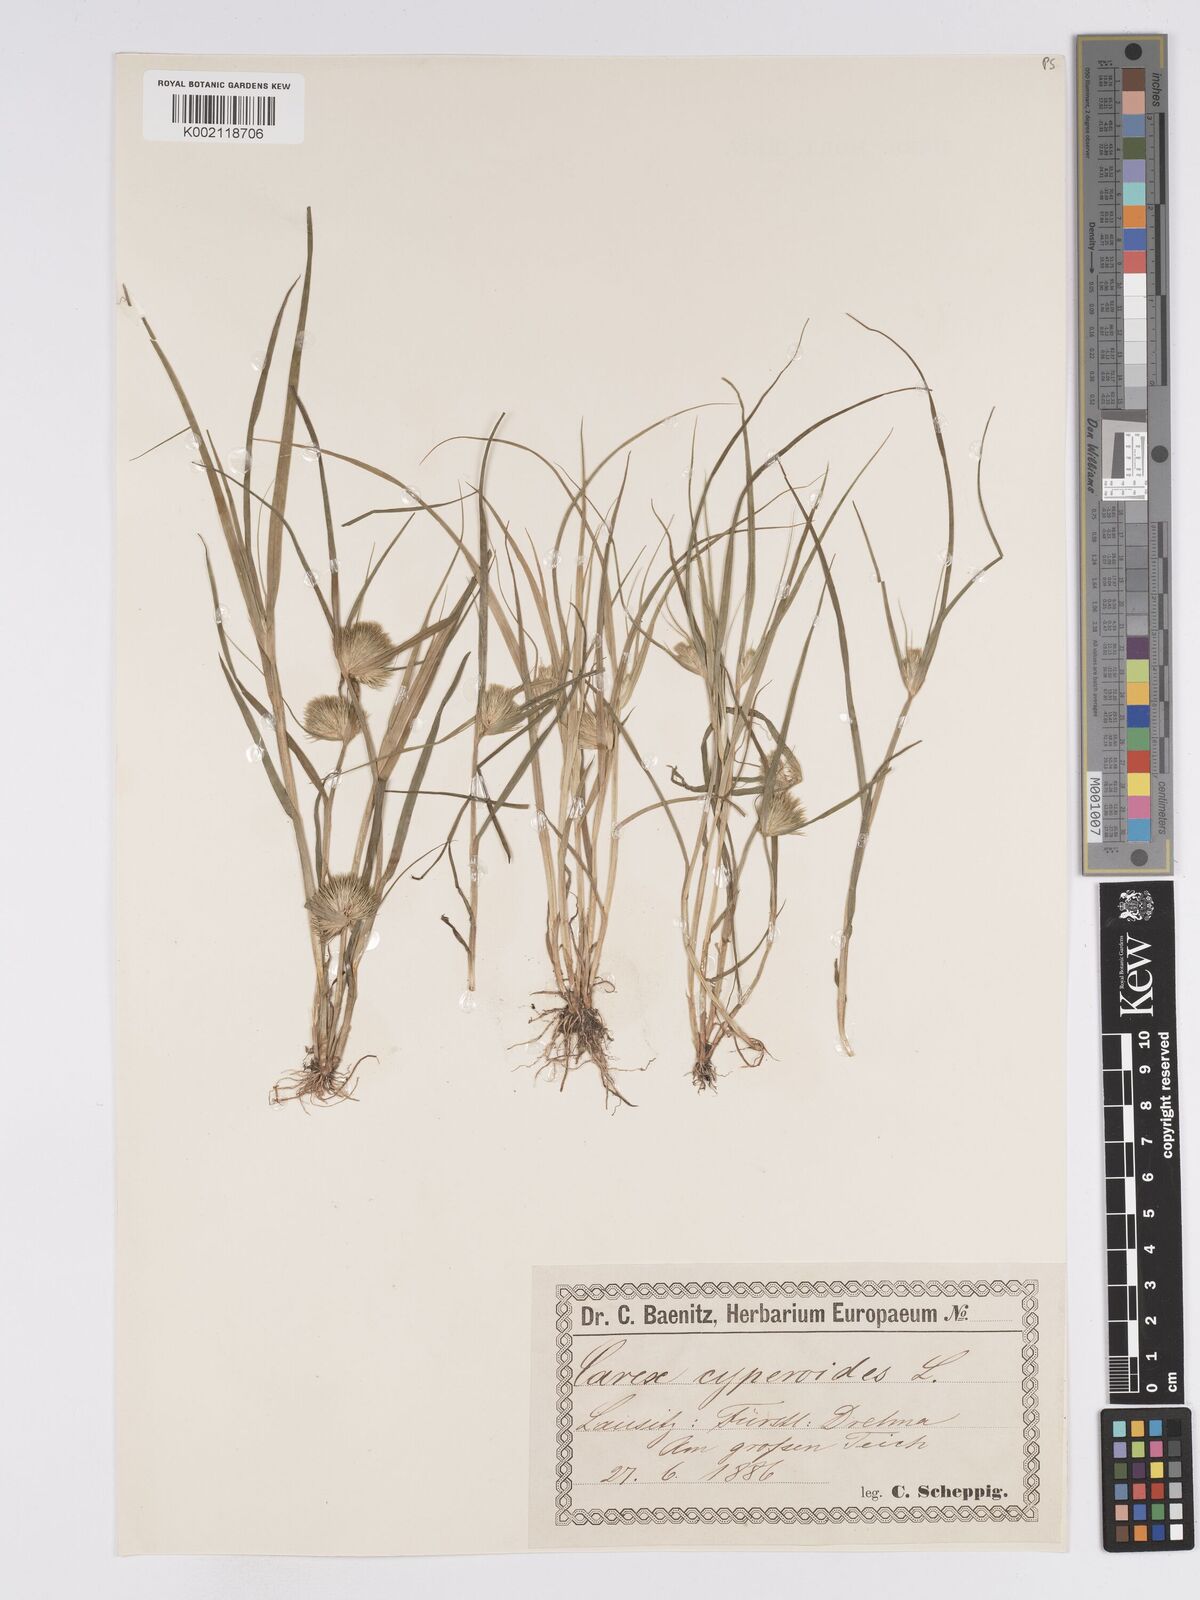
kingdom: Plantae
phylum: Tracheophyta
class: Liliopsida
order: Poales
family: Cyperaceae
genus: Carex
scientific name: Carex bohemica
